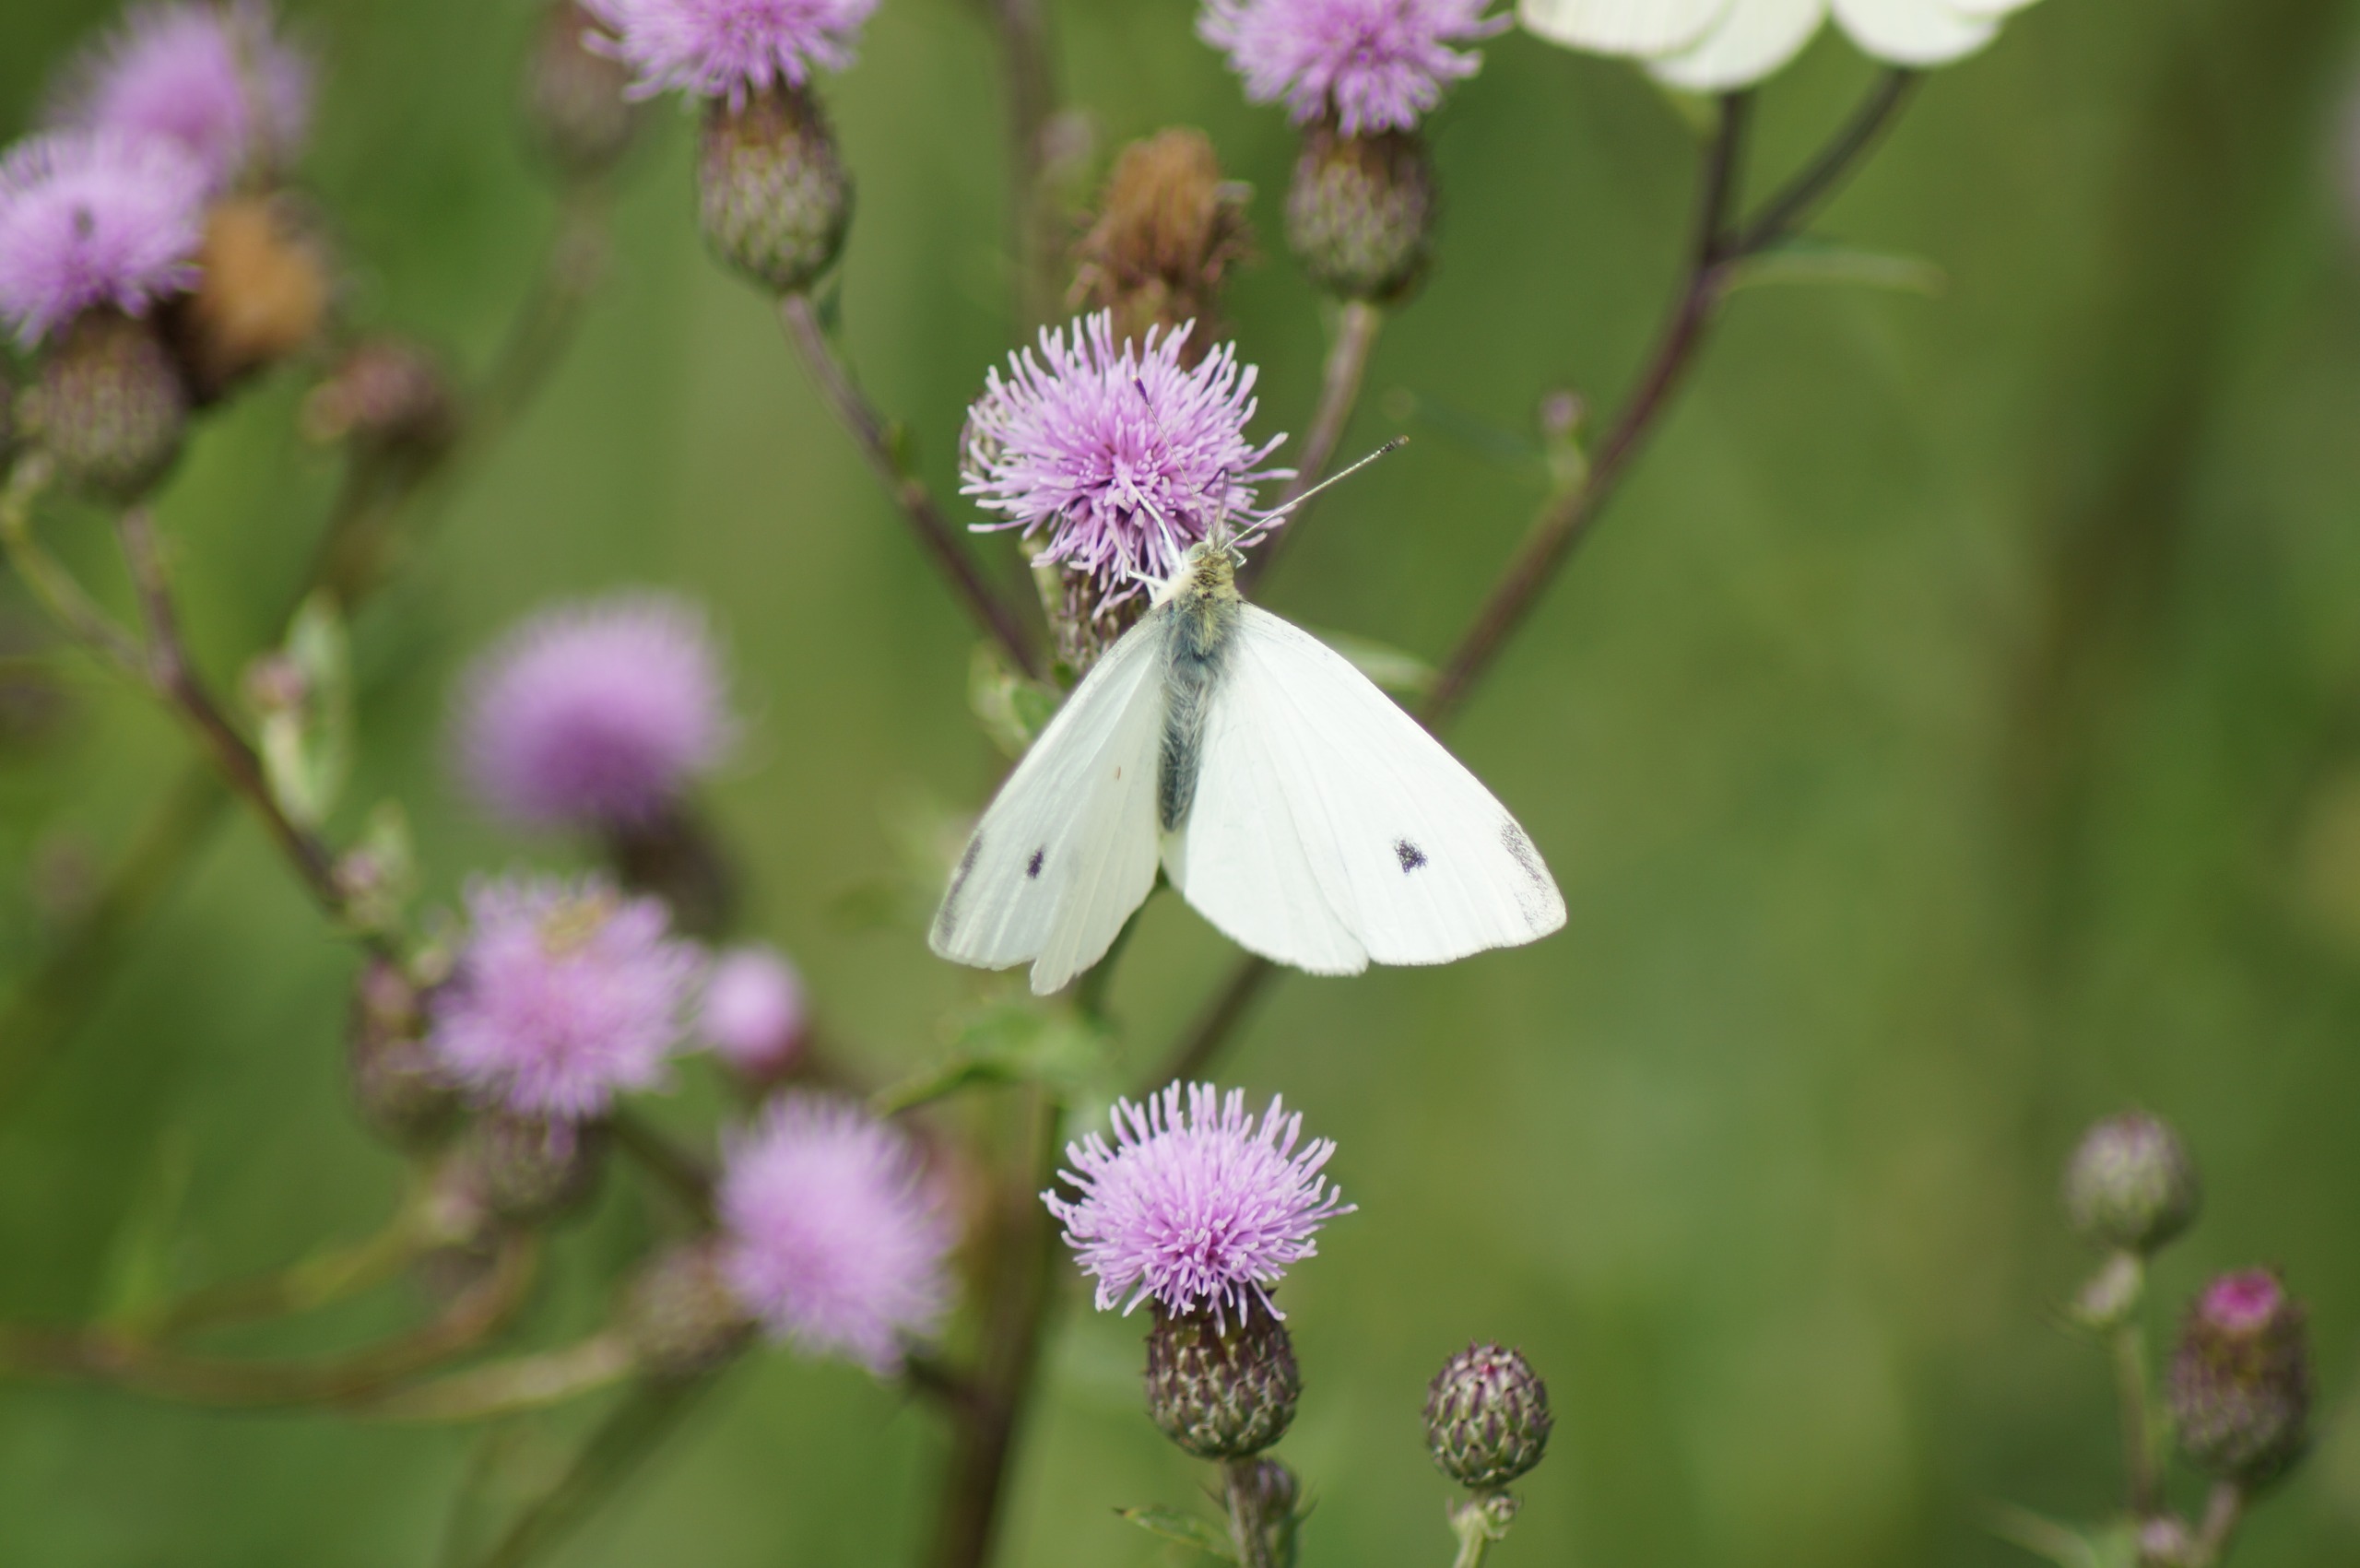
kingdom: Animalia
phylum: Arthropoda
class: Insecta
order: Lepidoptera
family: Pieridae
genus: Pieris
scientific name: Pieris rapae
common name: Lille kålsommerfugl
